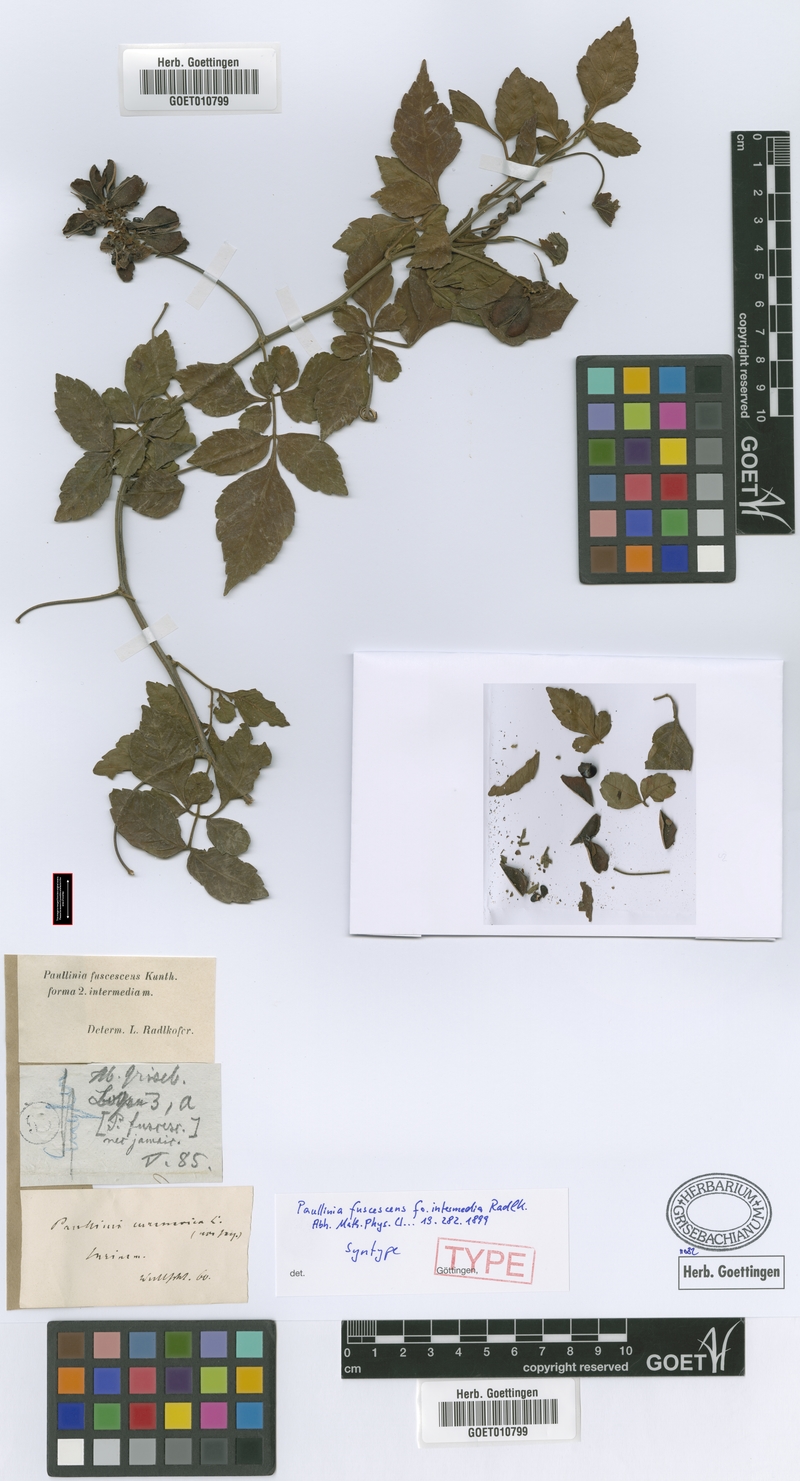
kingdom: Plantae
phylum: Tracheophyta
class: Magnoliopsida
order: Sapindales
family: Sapindaceae
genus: Paullinia
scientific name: Paullinia fuscescens
